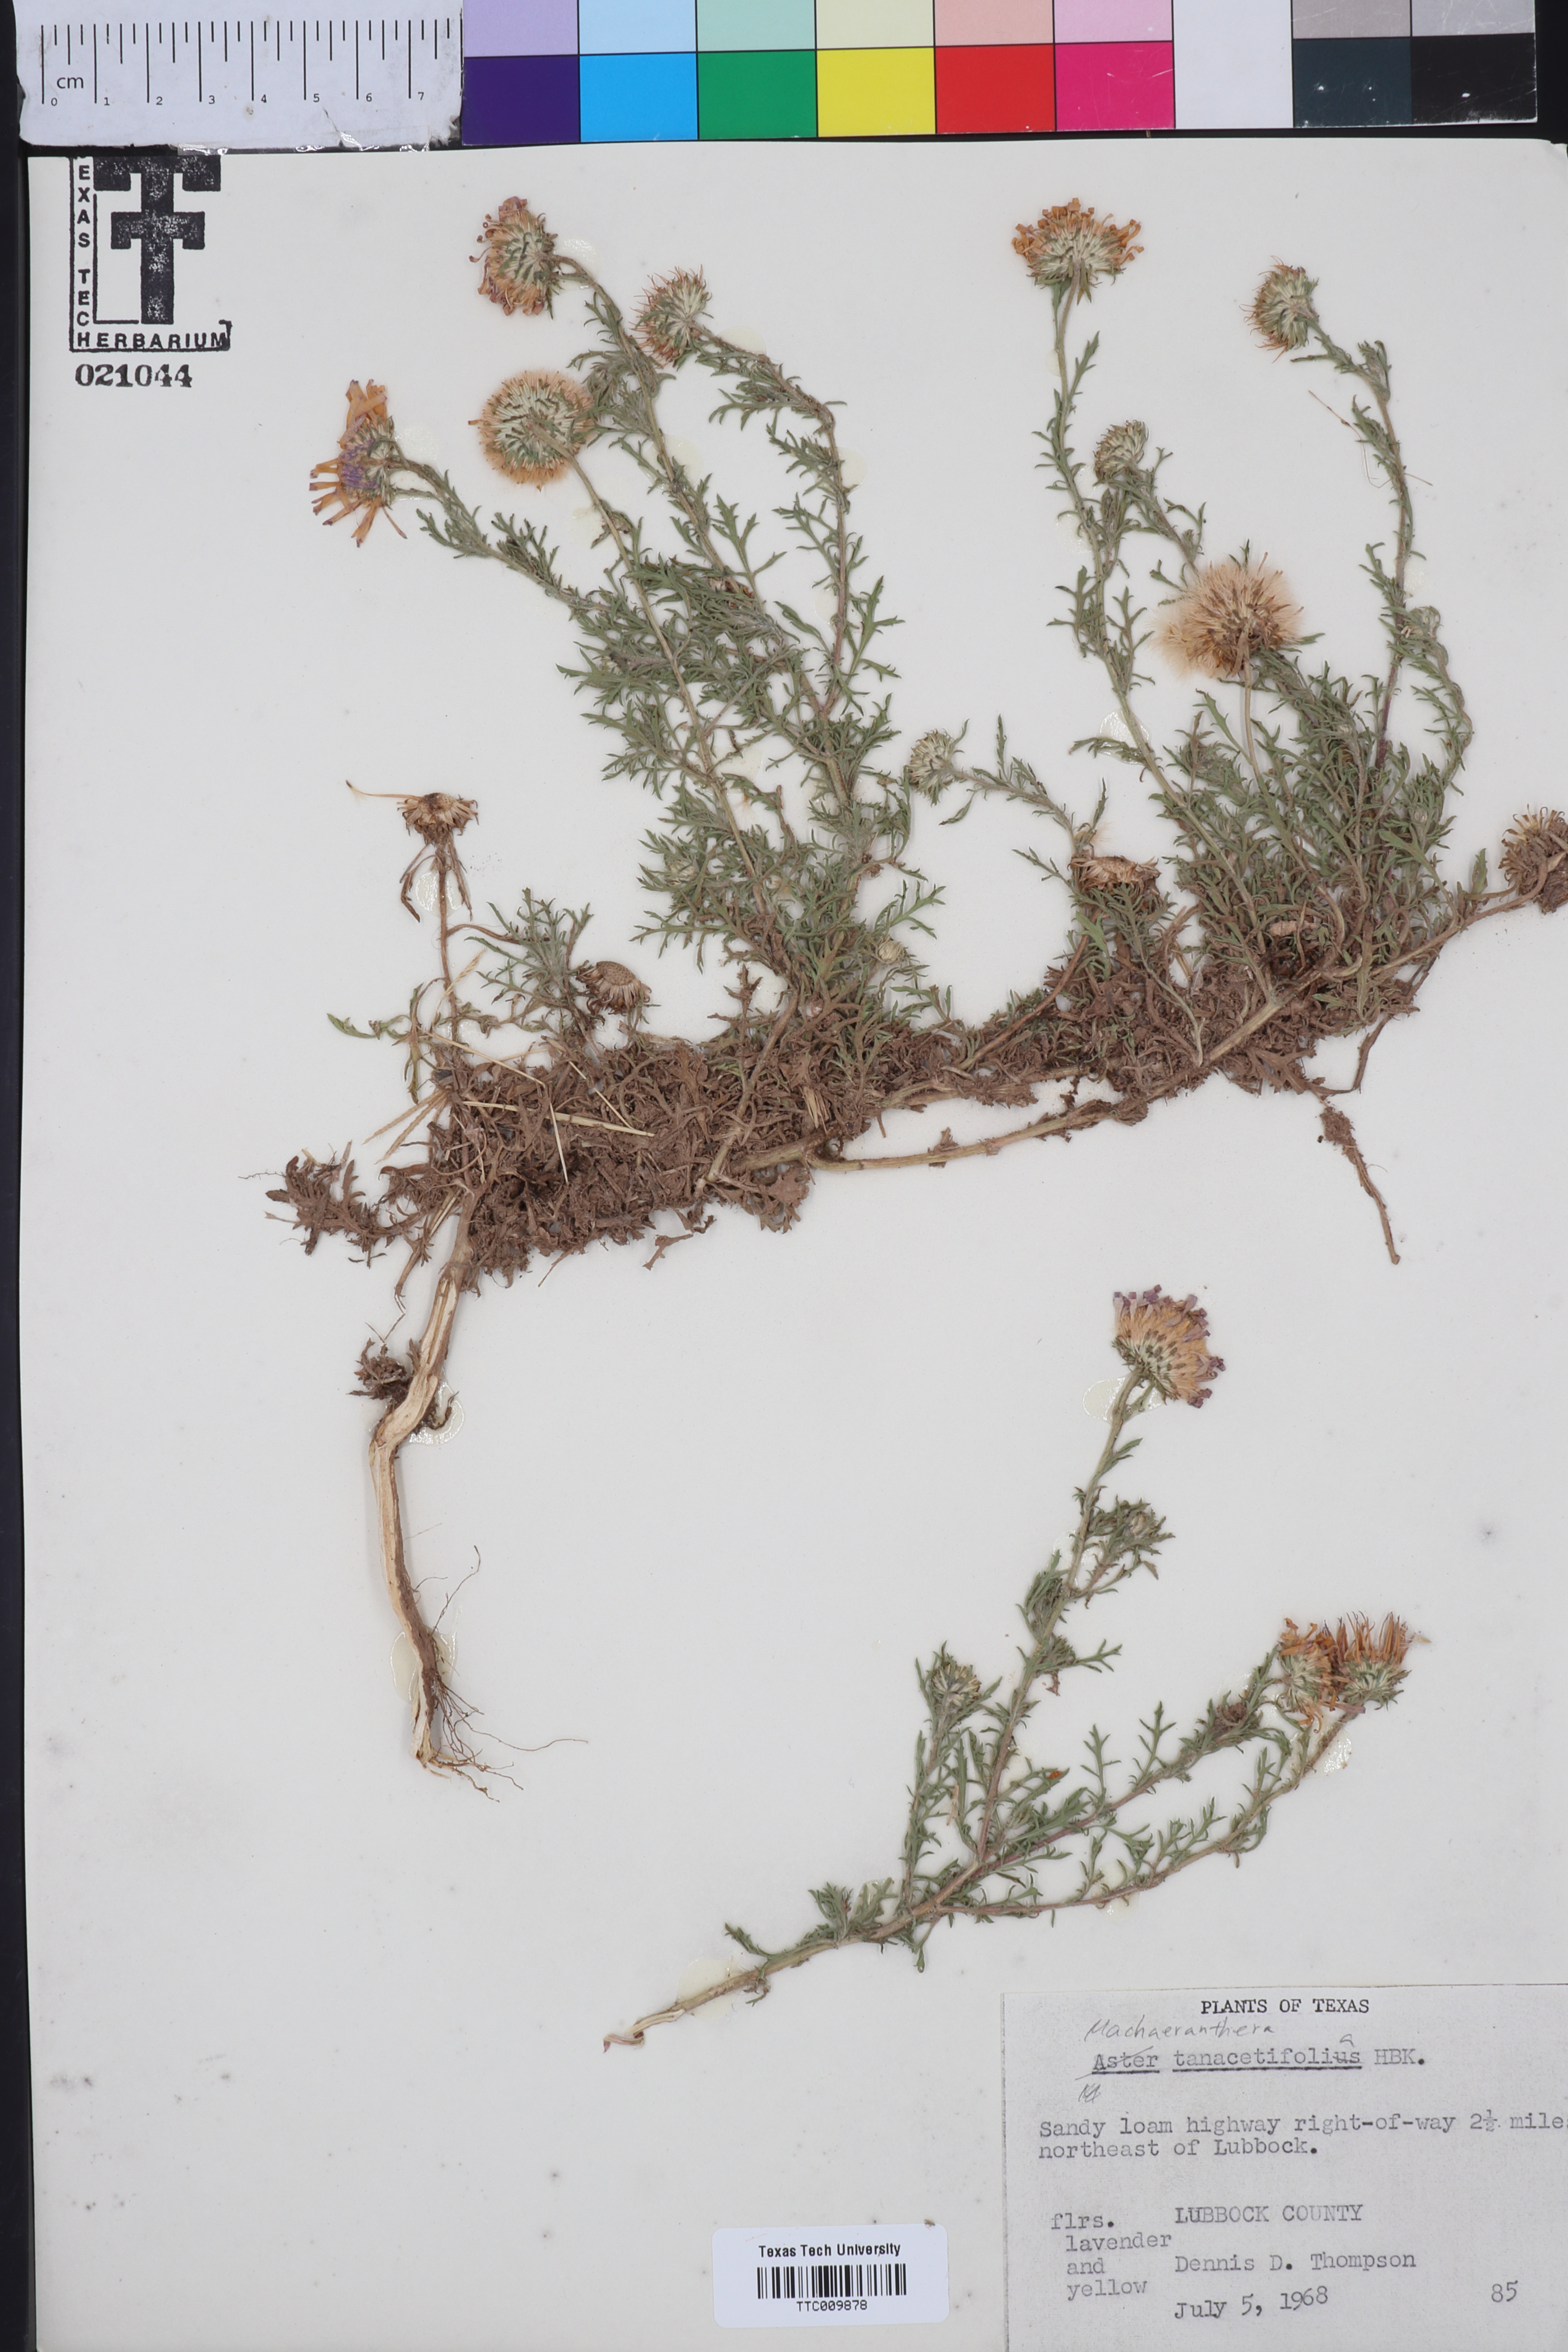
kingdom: Plantae
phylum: Tracheophyta
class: Magnoliopsida
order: Asterales
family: Asteraceae
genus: Machaeranthera
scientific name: Machaeranthera tanacetifolia
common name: Tansy-aster
